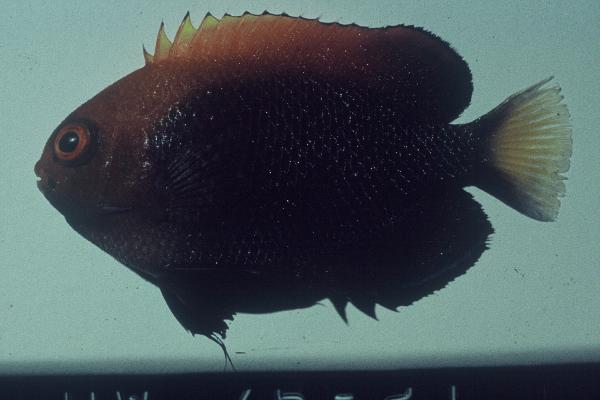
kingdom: Animalia
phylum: Chordata
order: Perciformes
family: Pomacanthidae
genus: Centropyge
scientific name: Centropyge acanthops
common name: African pygmy angelfish
